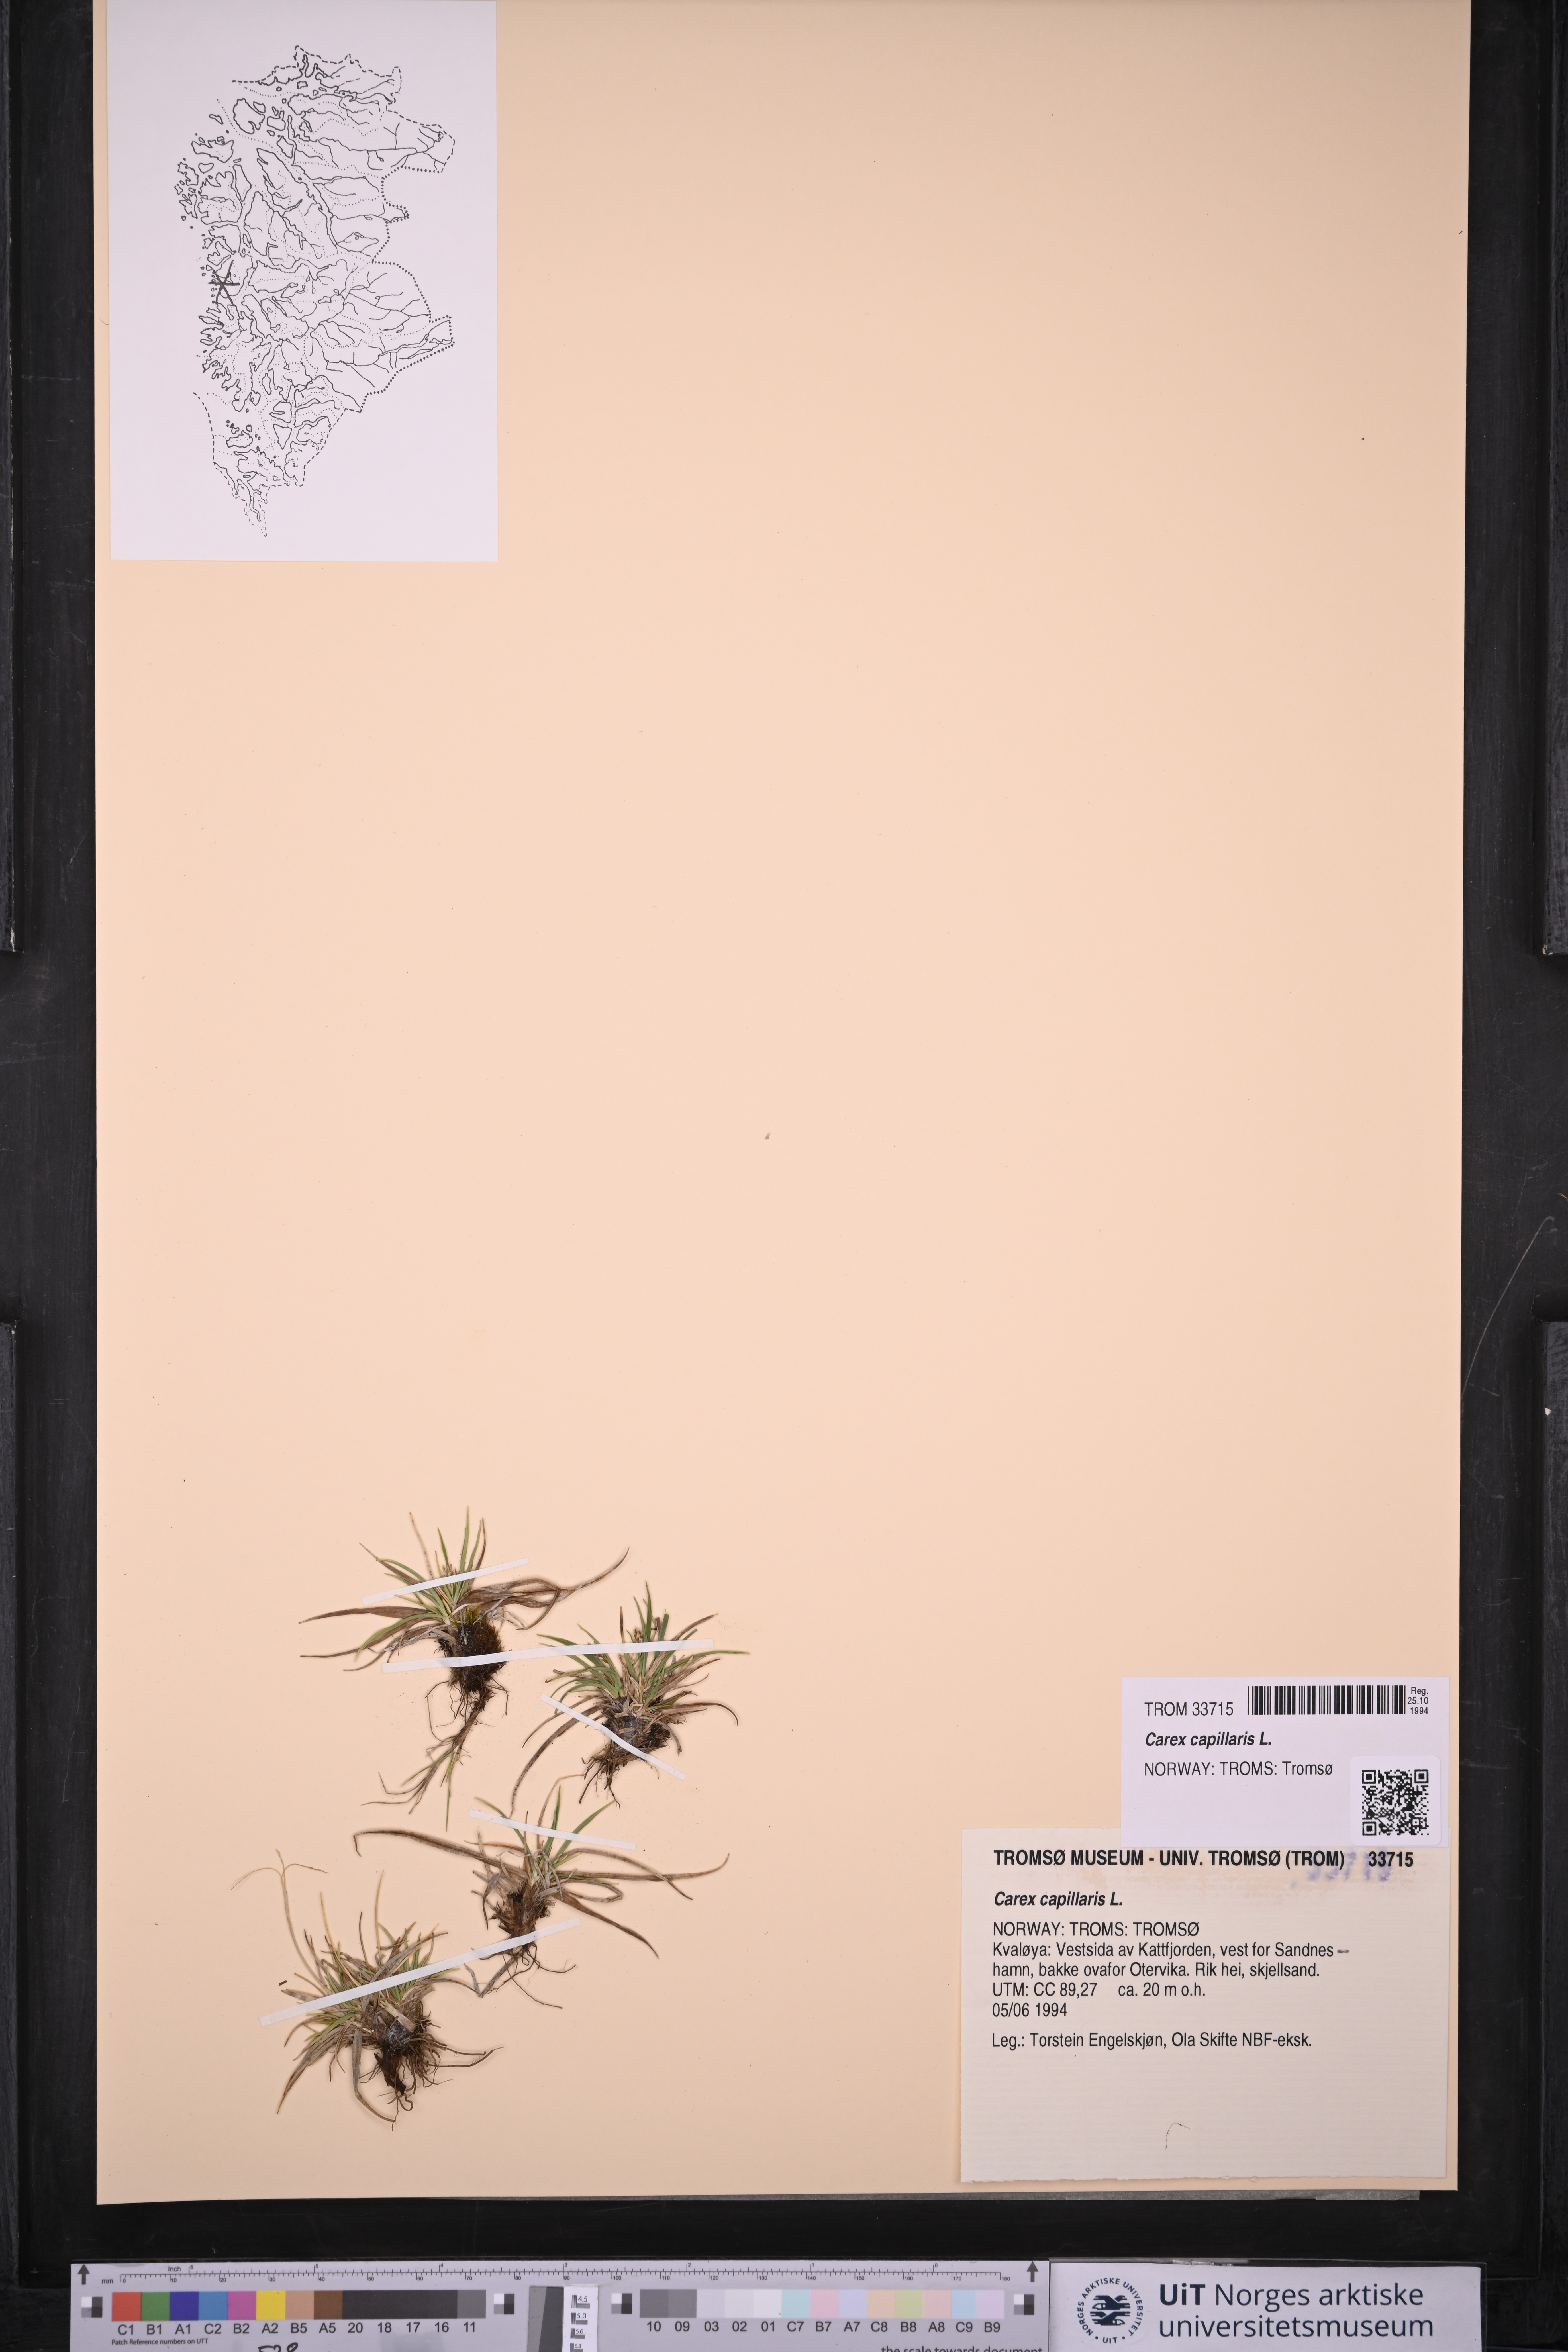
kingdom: Plantae
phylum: Tracheophyta
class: Liliopsida
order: Poales
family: Cyperaceae
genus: Carex
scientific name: Carex capillaris
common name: Hair sedge
